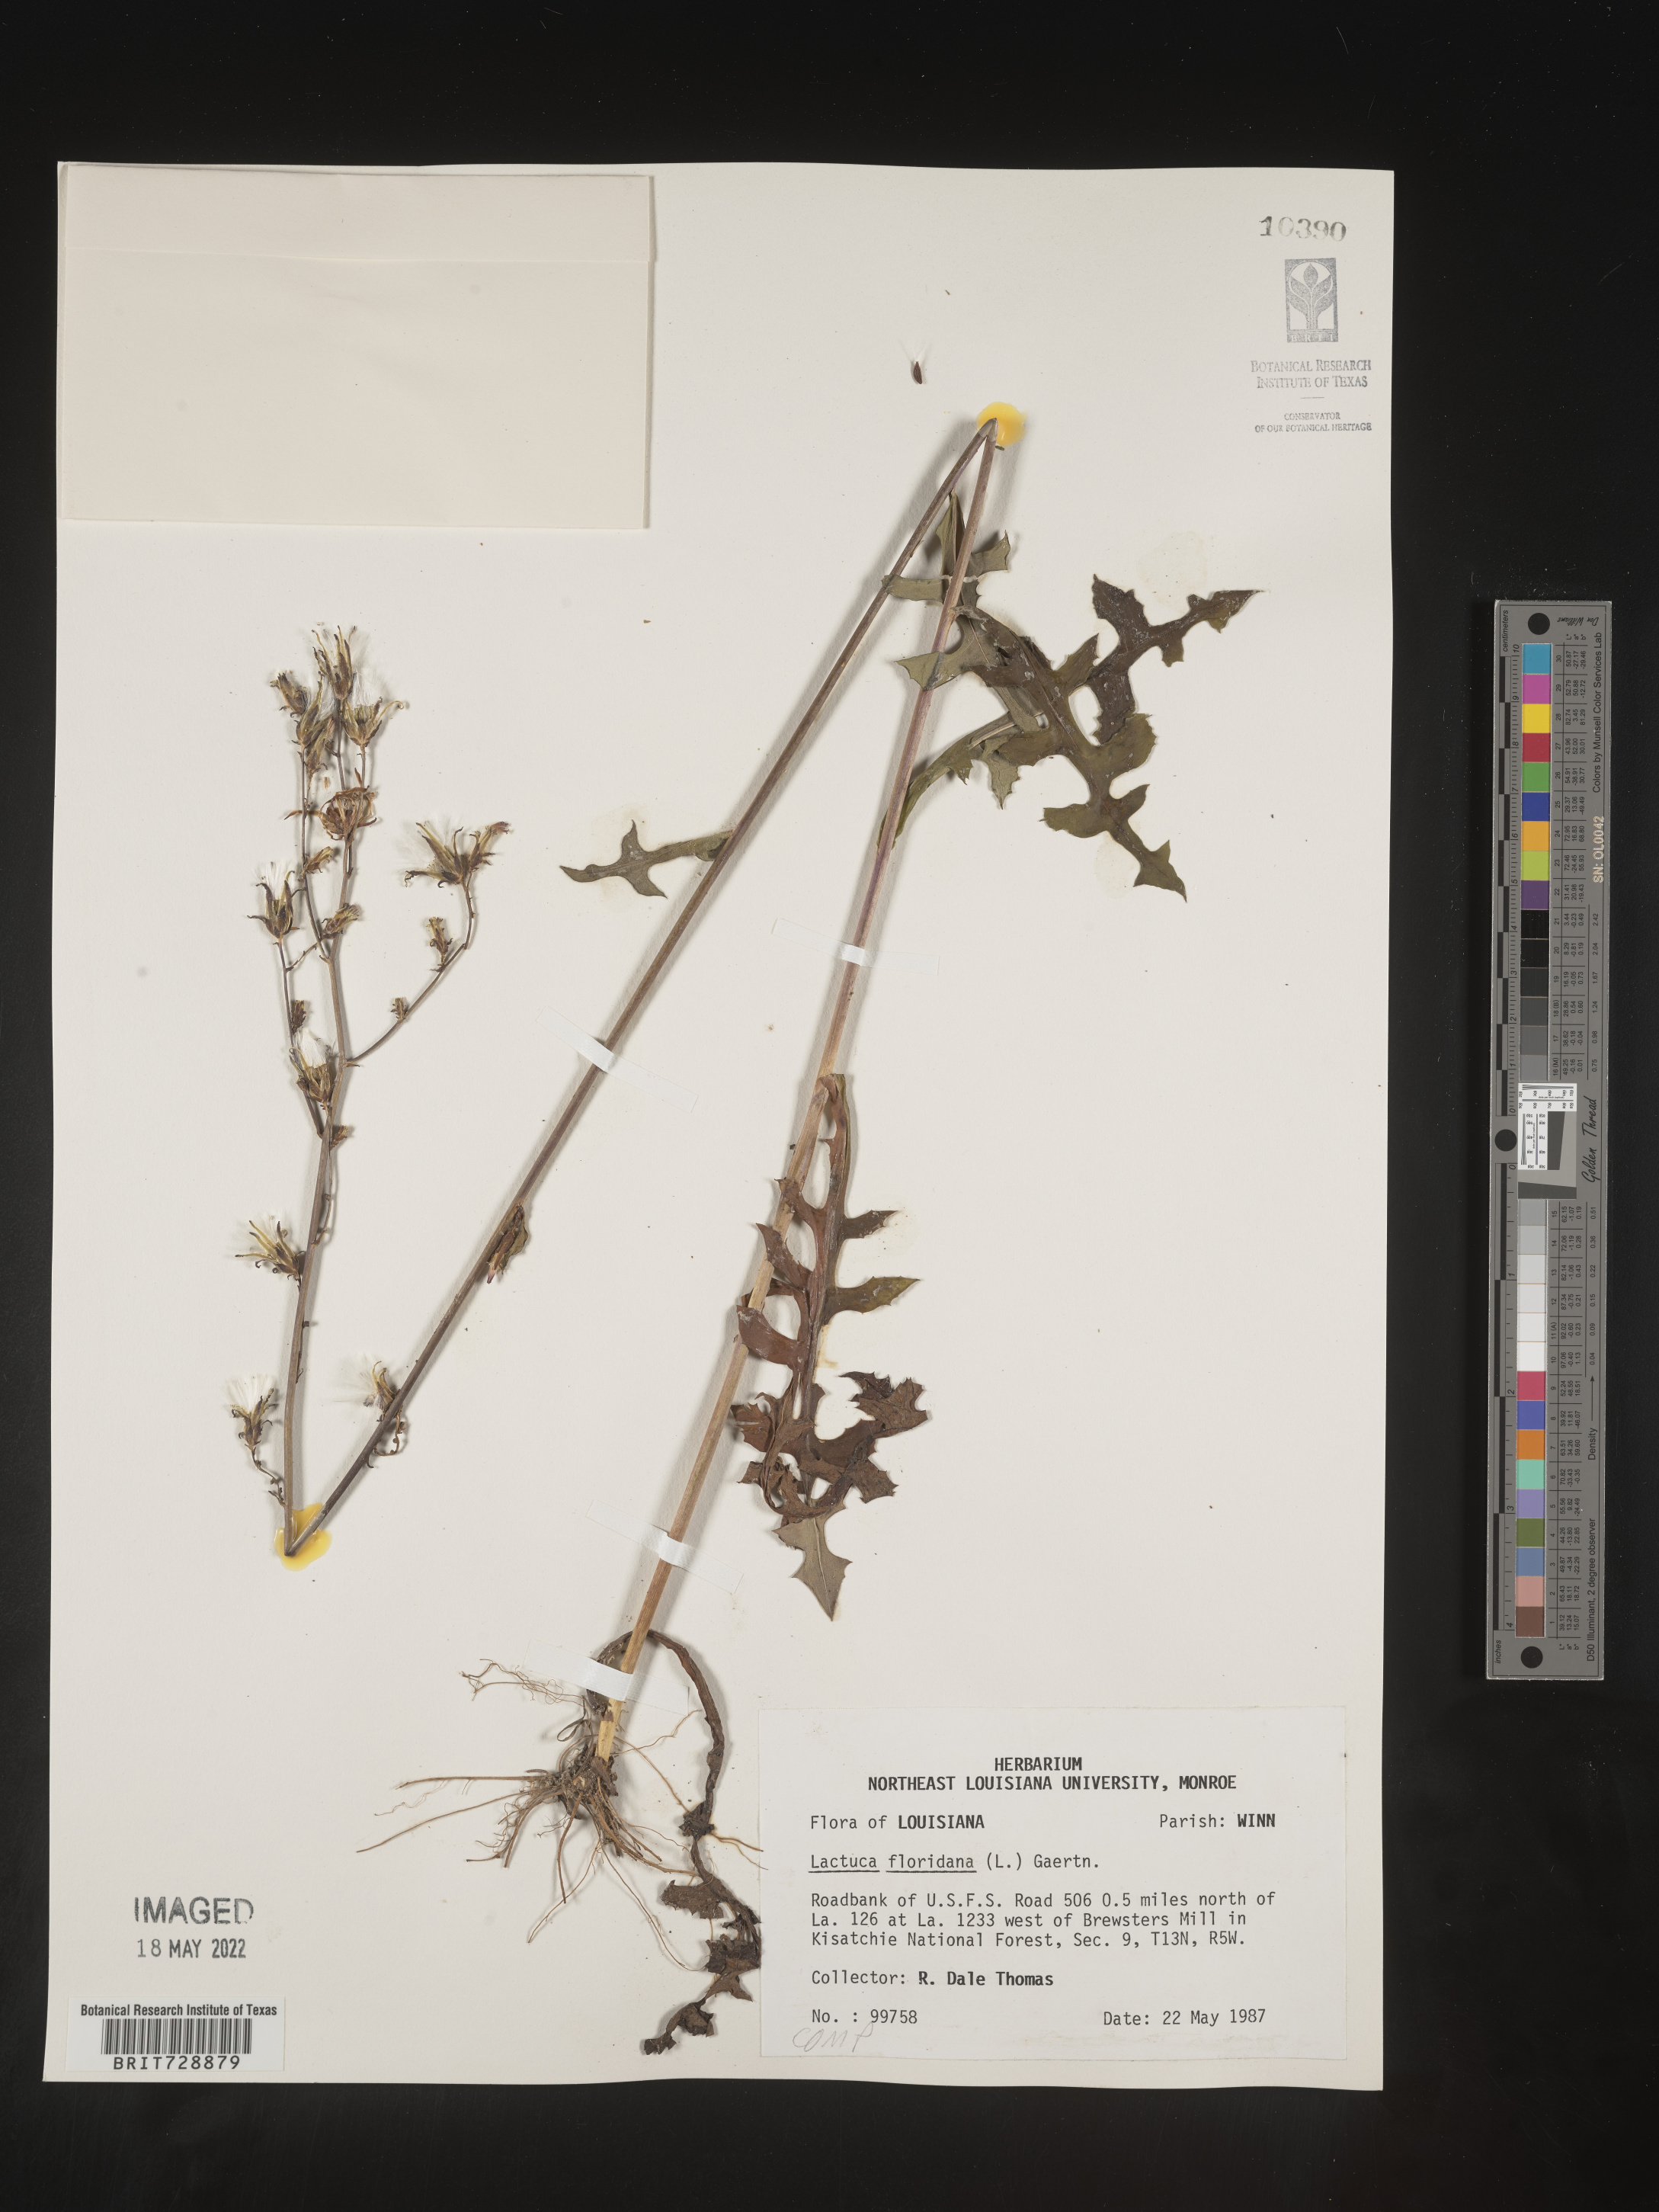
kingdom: Plantae
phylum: Tracheophyta
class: Magnoliopsida
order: Asterales
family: Asteraceae
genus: Lactuca
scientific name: Lactuca floridana
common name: Woodland lettuce
